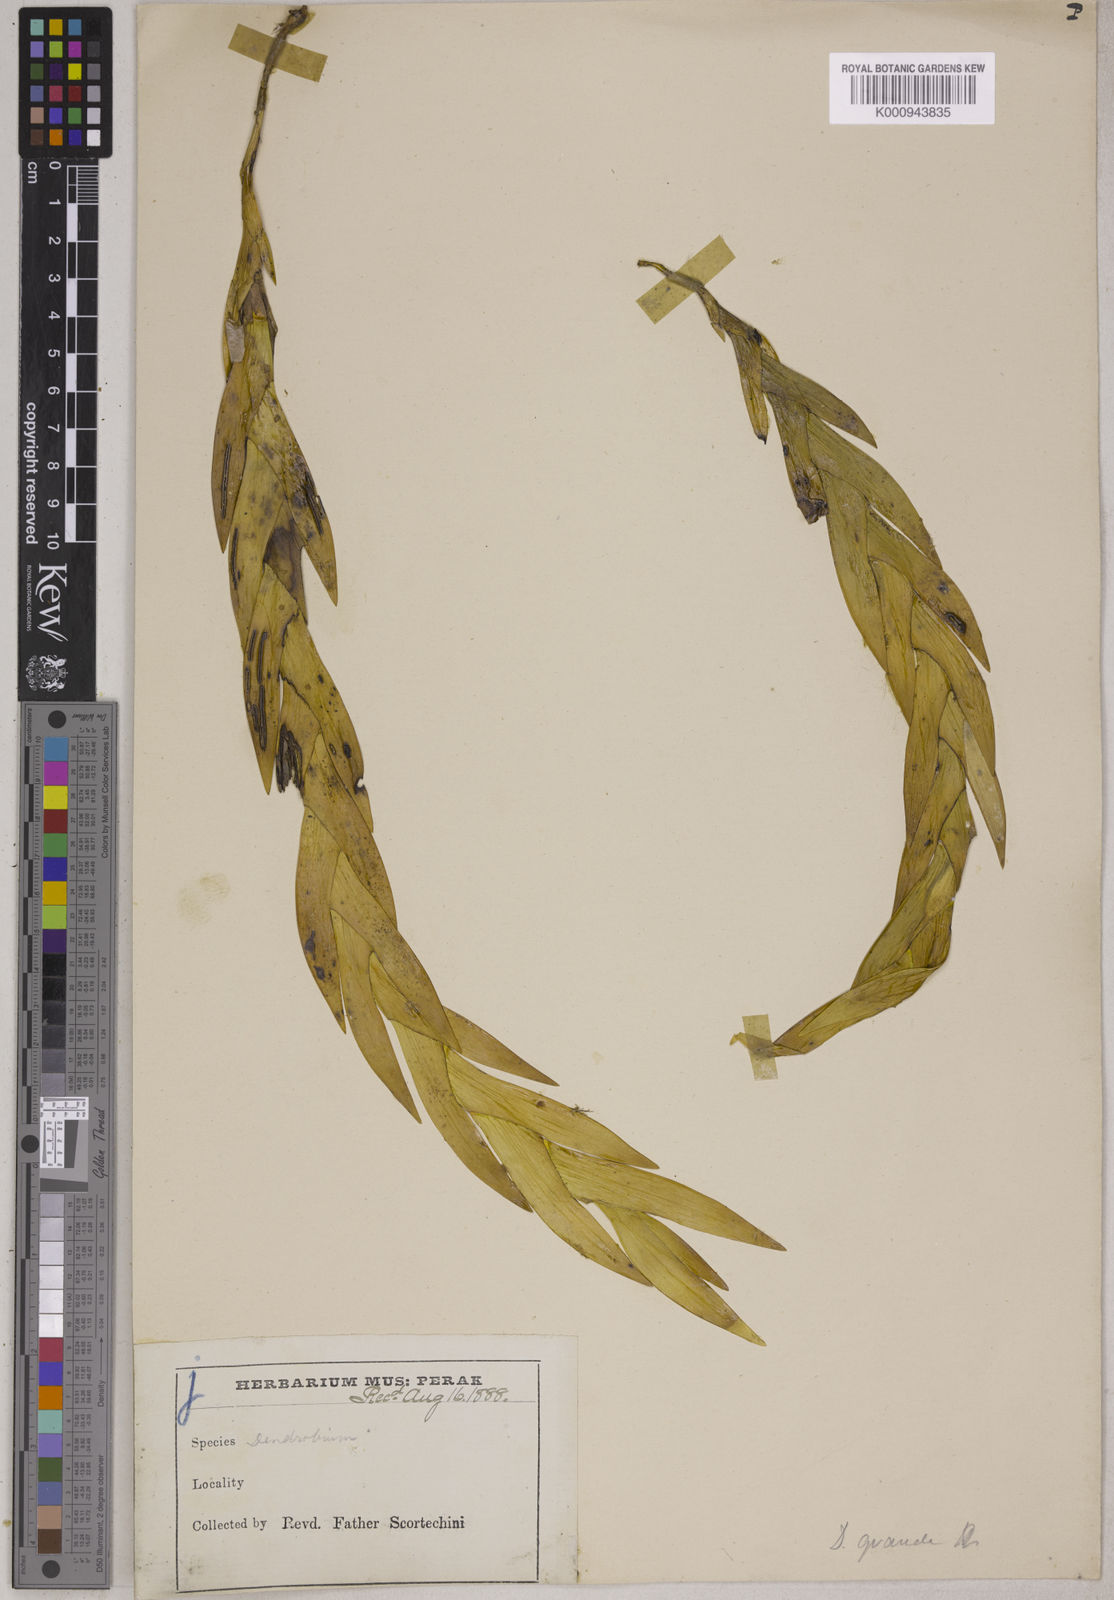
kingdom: Plantae
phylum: Tracheophyta
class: Liliopsida
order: Asparagales
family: Orchidaceae
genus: Dendrobium
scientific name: Dendrobium grande
